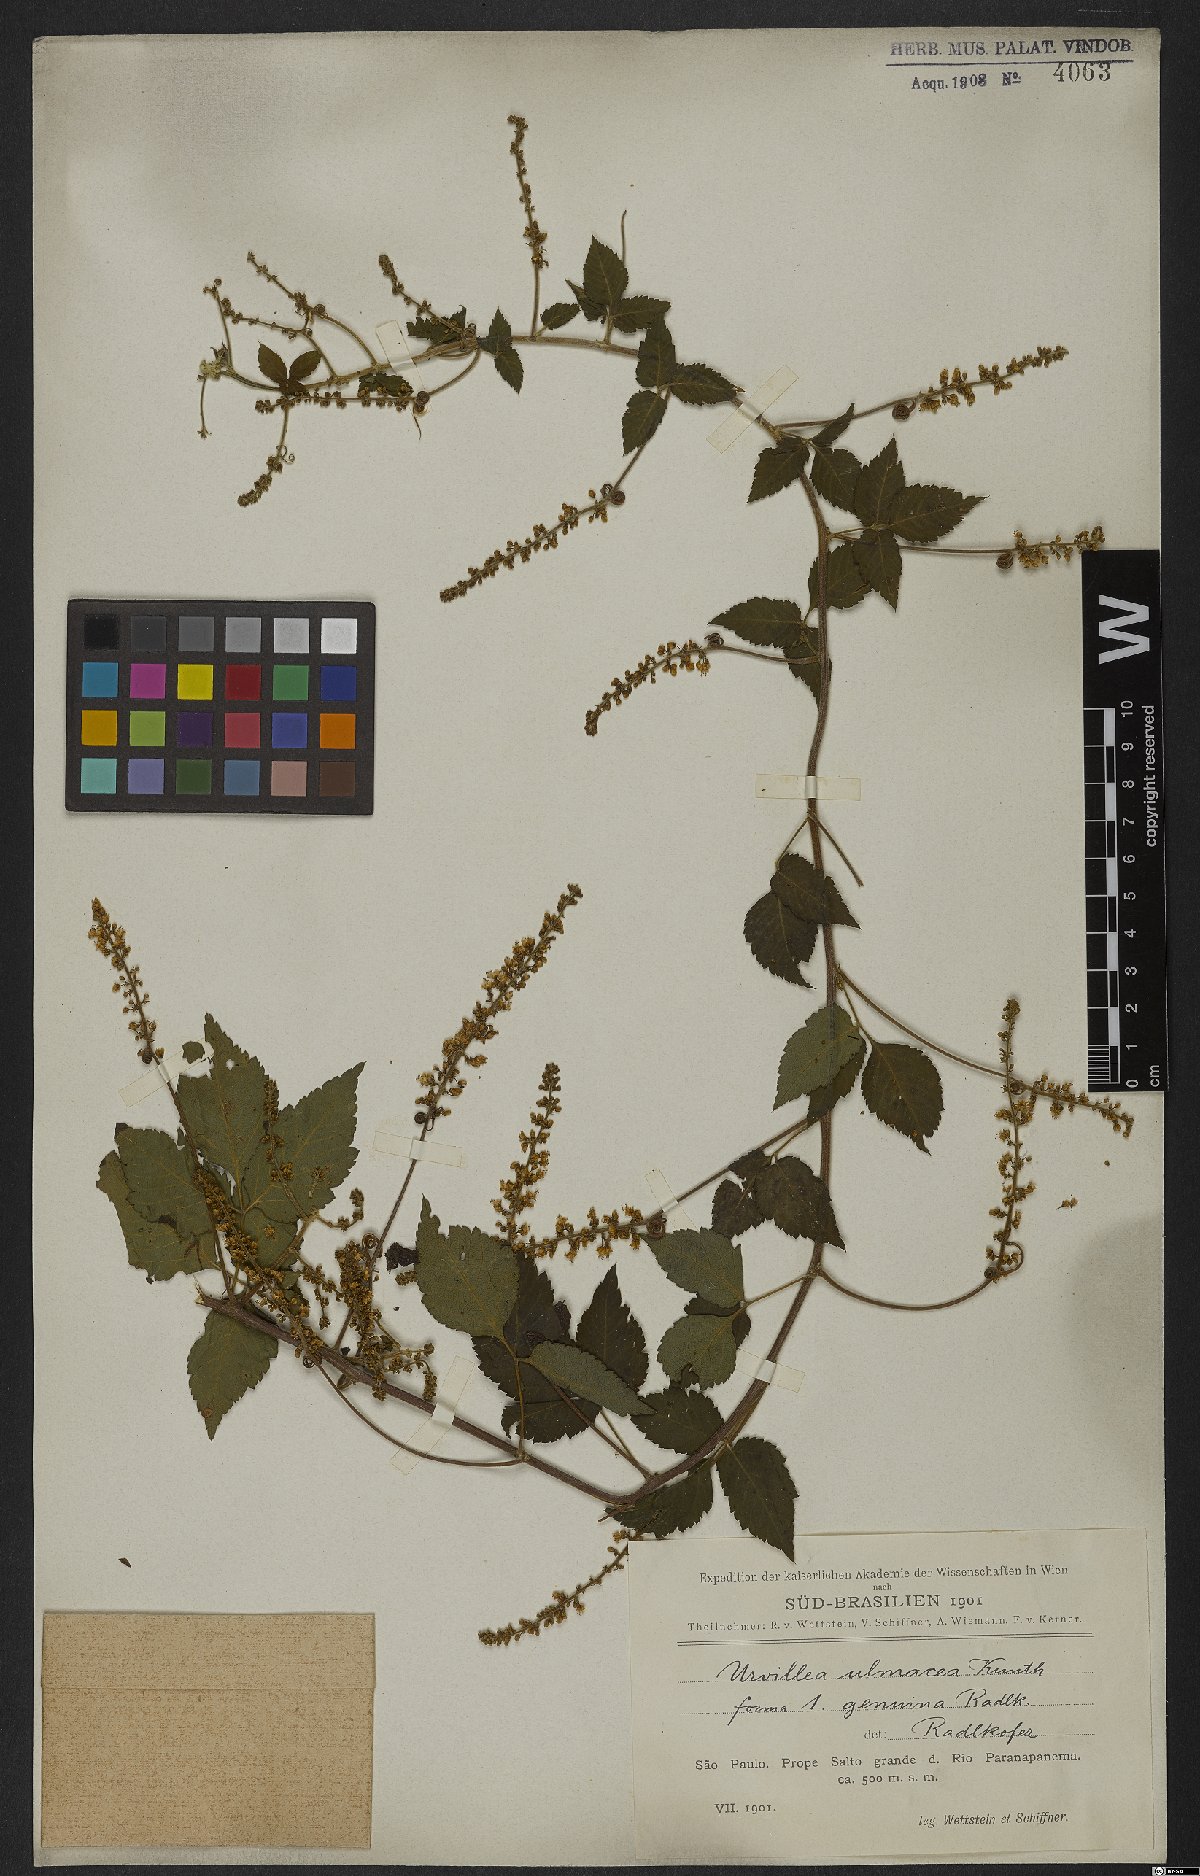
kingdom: Plantae
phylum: Tracheophyta
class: Magnoliopsida
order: Sapindales
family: Sapindaceae
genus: Urvillea
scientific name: Urvillea ulmacea
